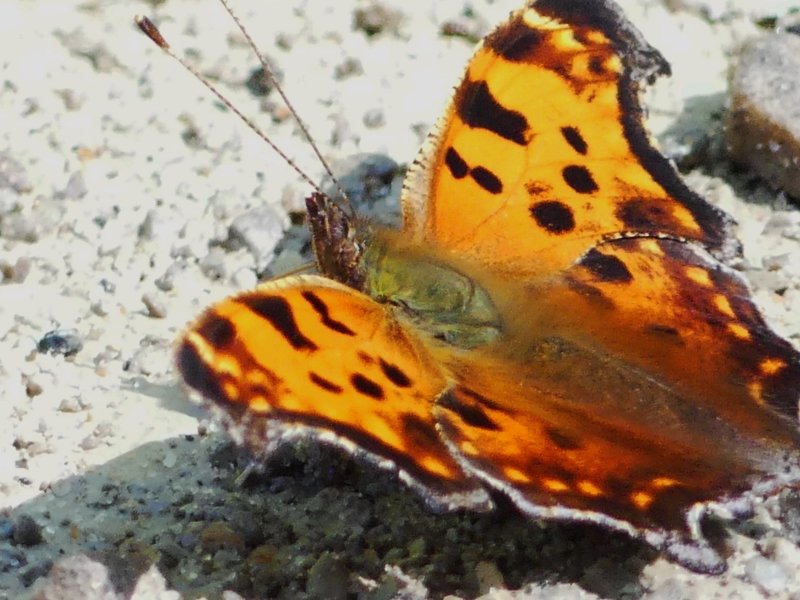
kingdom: Animalia
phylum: Arthropoda
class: Insecta
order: Lepidoptera
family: Nymphalidae
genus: Polygonia
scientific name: Polygonia comma
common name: Eastern Comma
